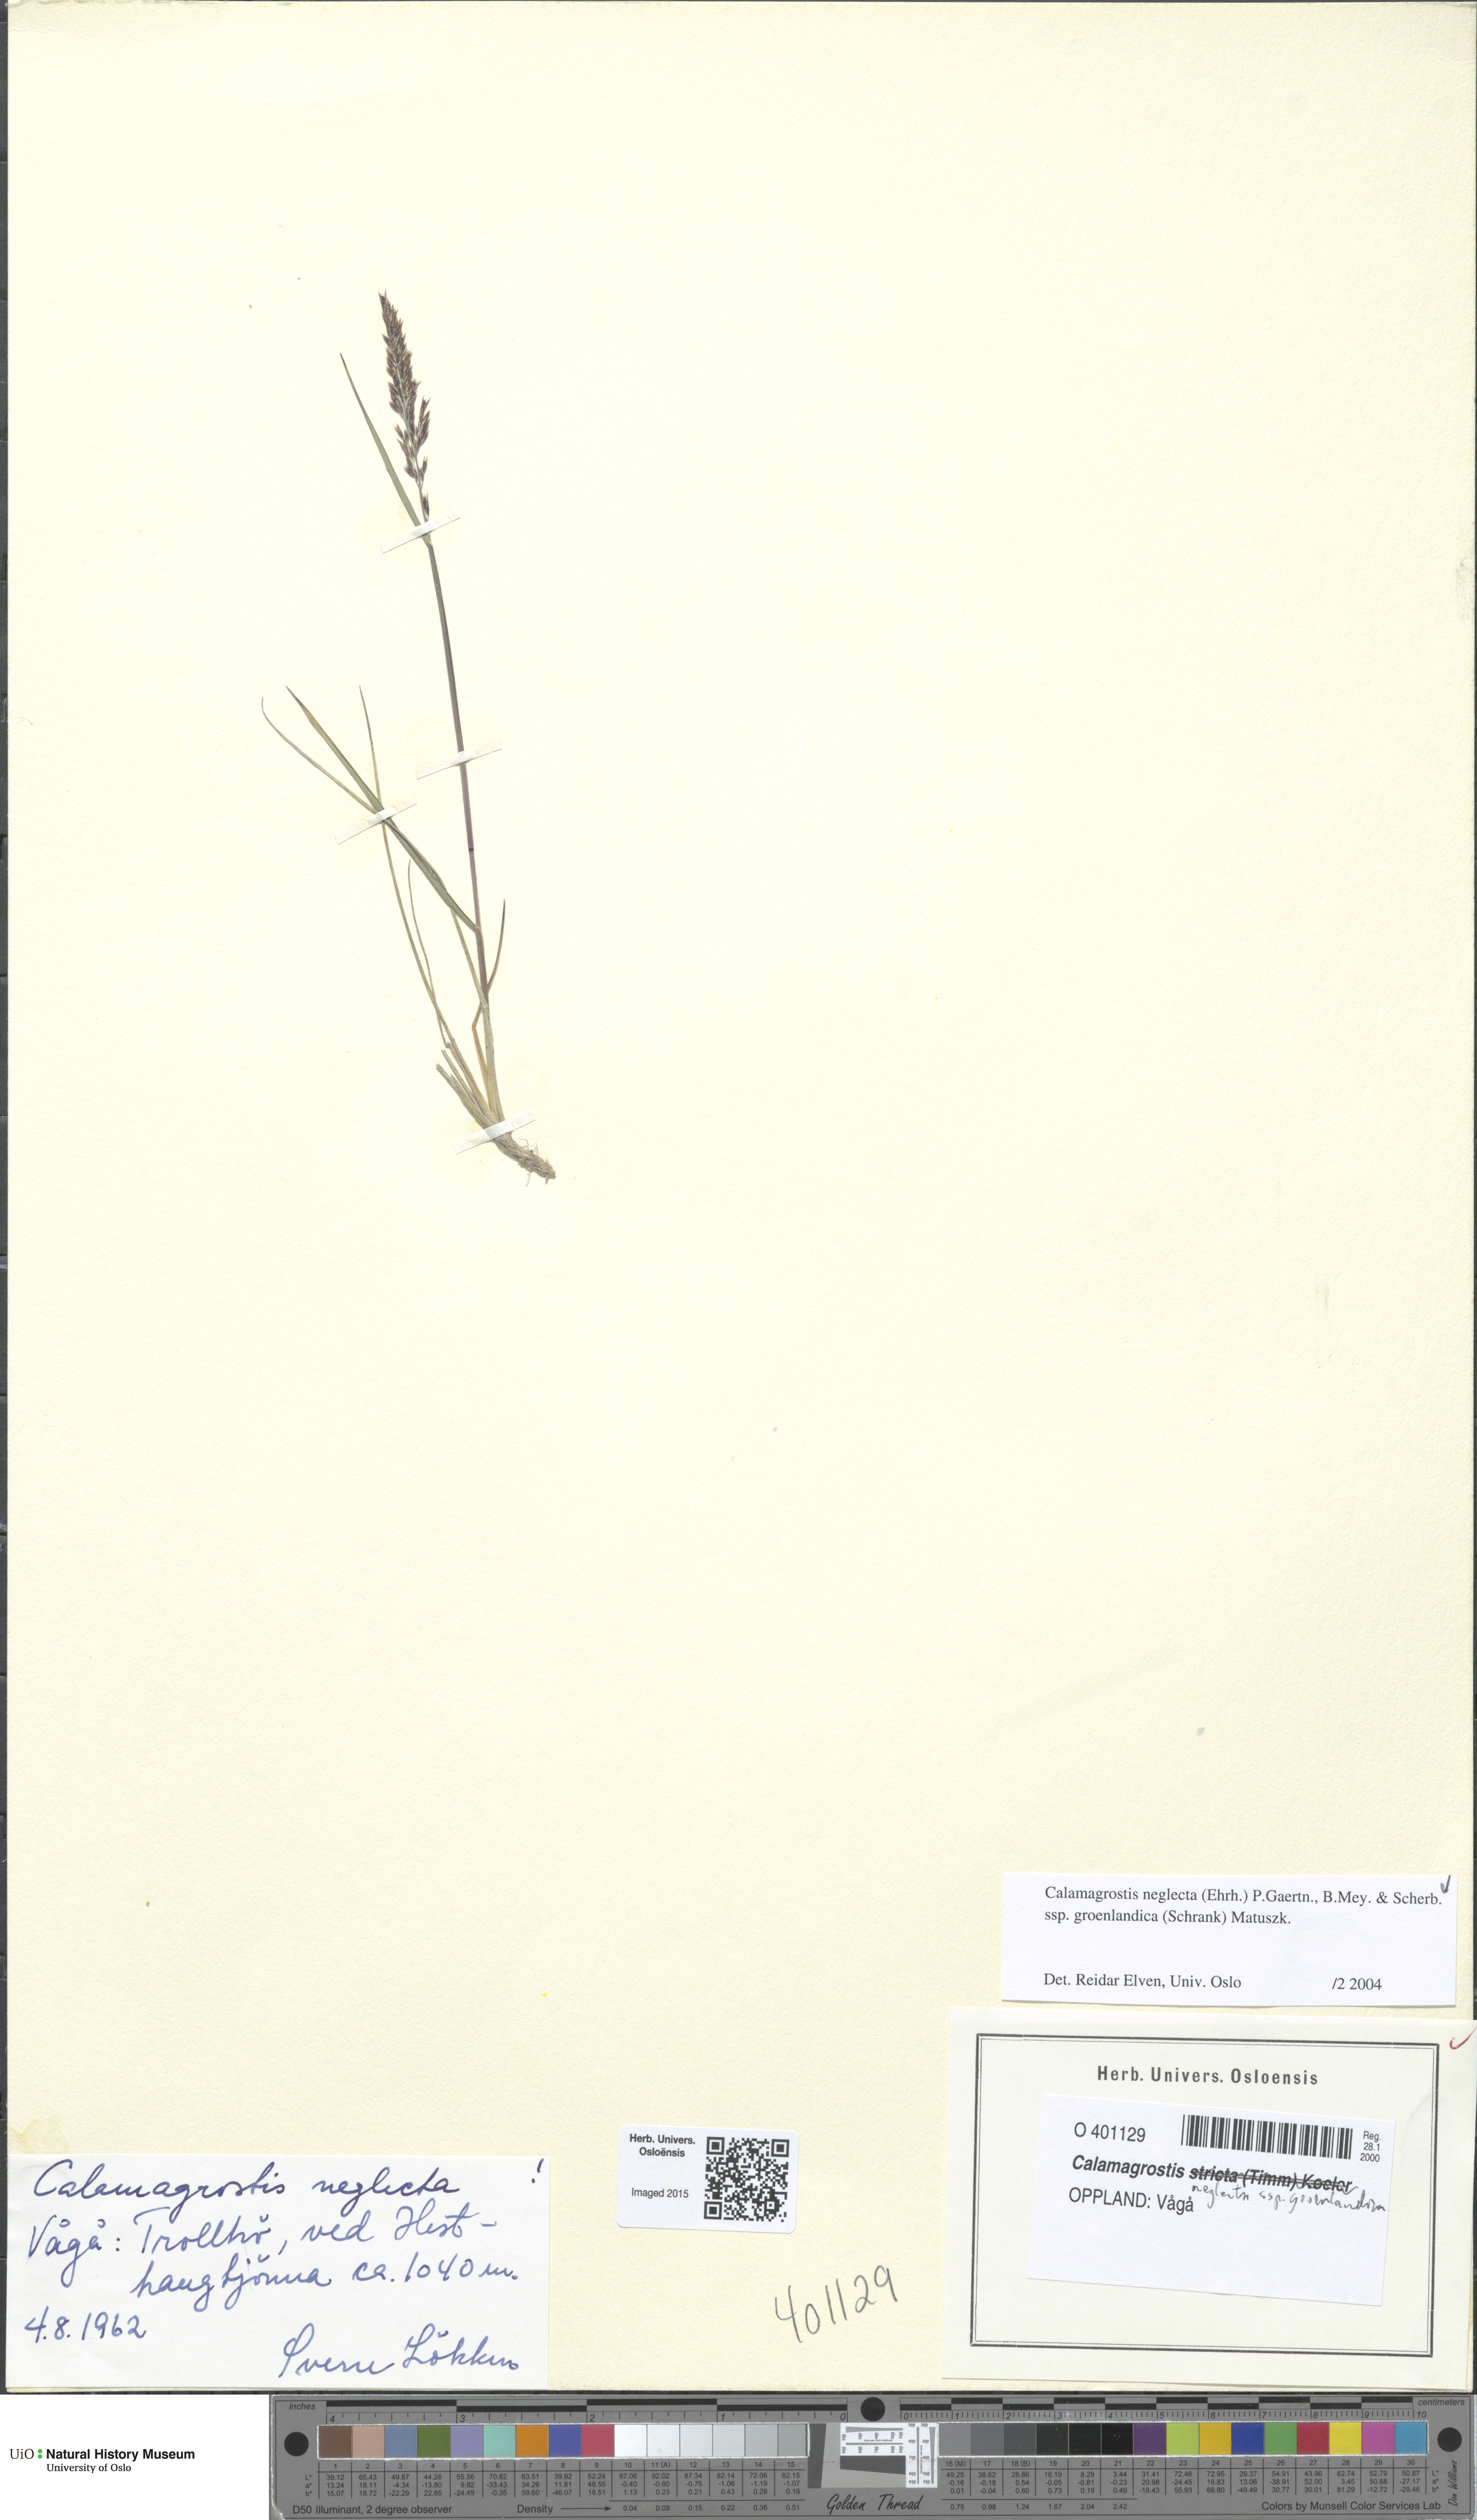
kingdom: Plantae
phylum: Tracheophyta
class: Liliopsida
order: Poales
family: Poaceae
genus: Calamagrostis
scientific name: Calamagrostis stricta
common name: Narrow small-reed
